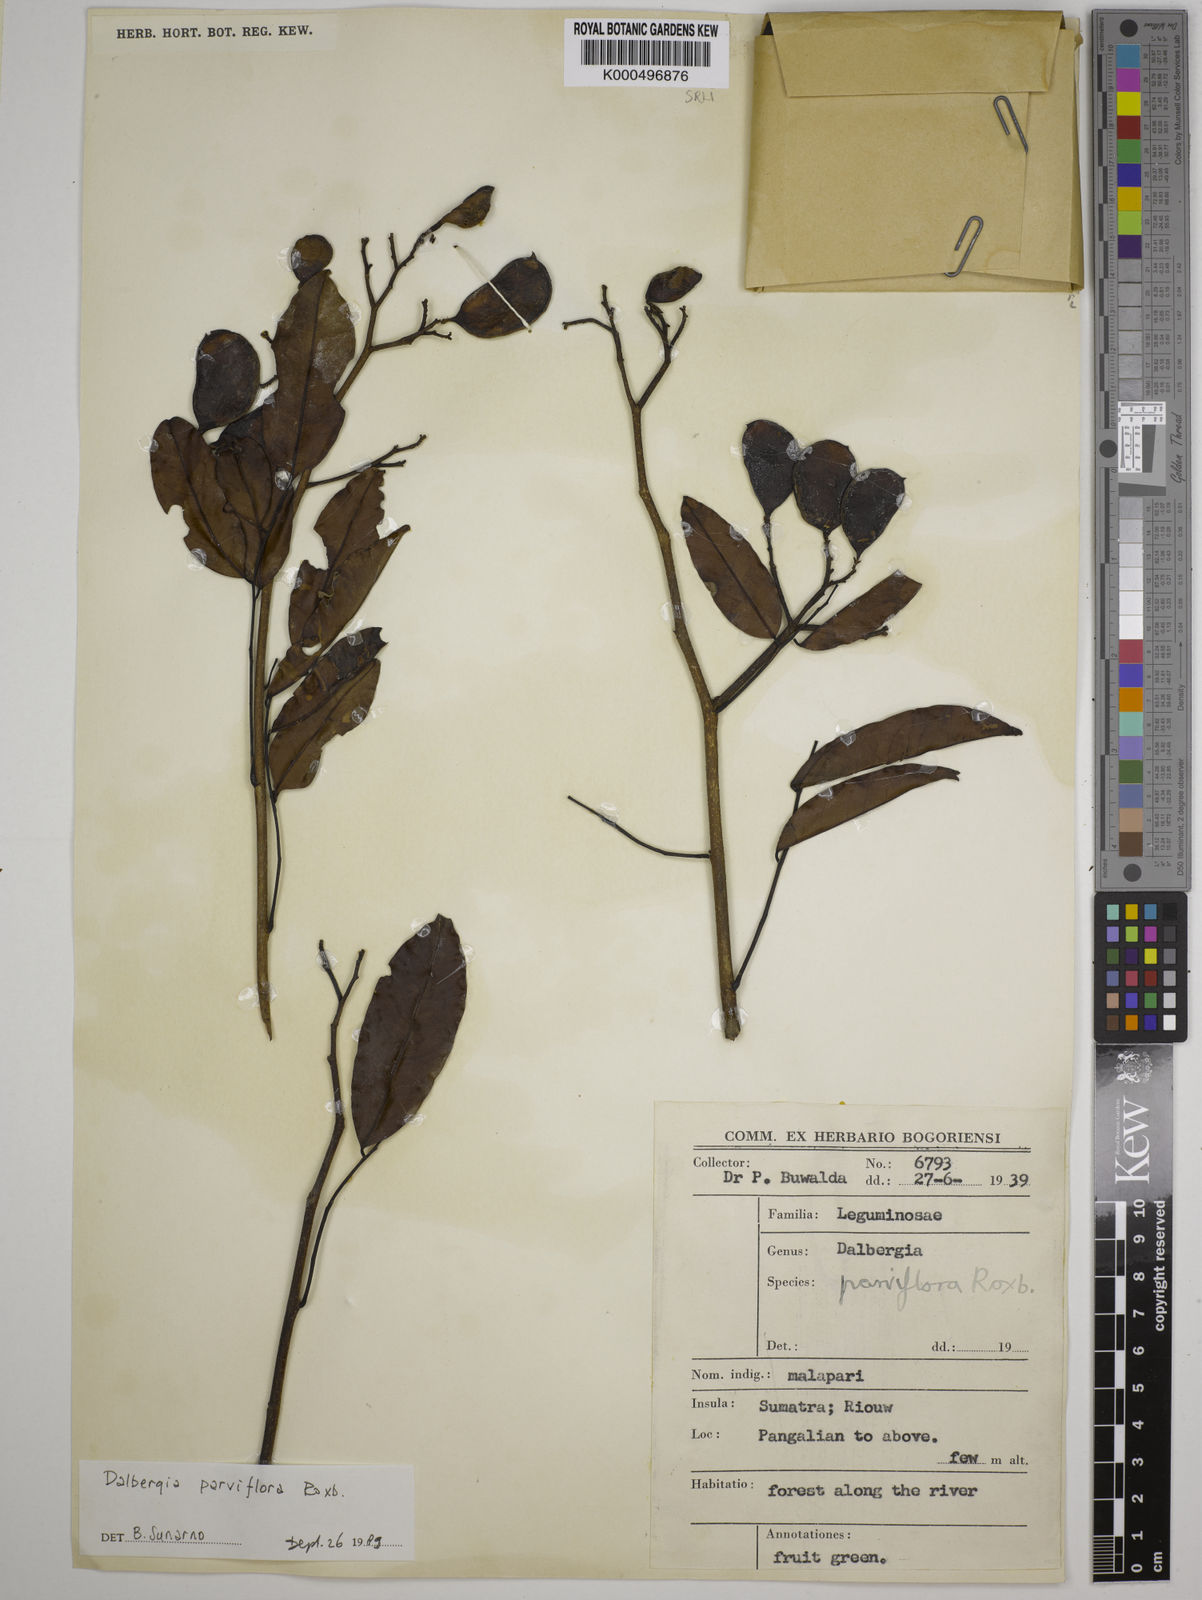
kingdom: Plantae
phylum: Tracheophyta
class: Magnoliopsida
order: Fabales
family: Fabaceae
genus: Dalbergia
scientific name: Dalbergia parviflora
